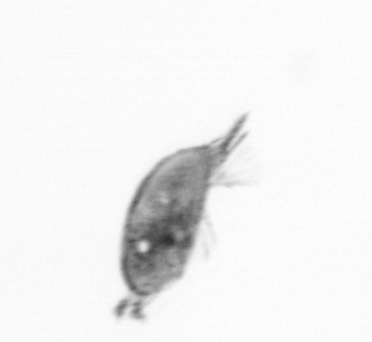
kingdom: Animalia
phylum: Arthropoda
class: Maxillopoda
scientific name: Maxillopoda
